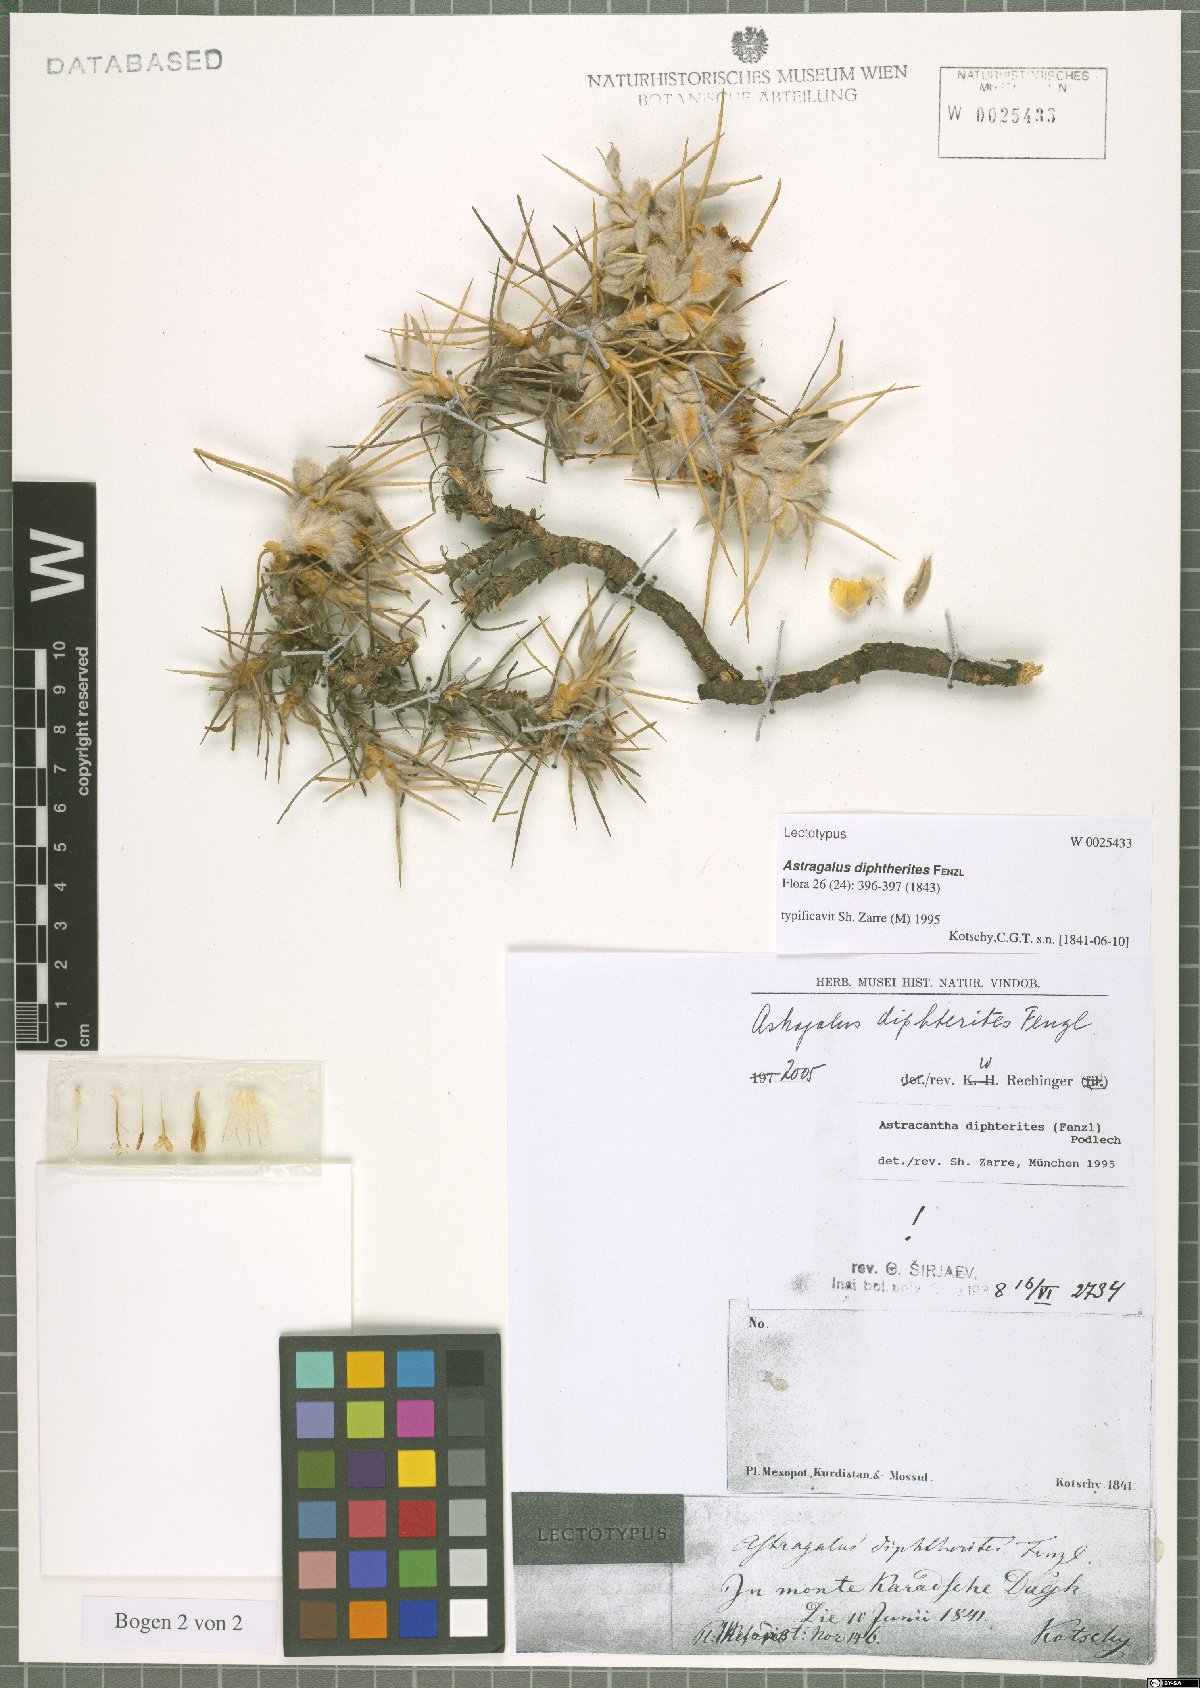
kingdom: Plantae
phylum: Tracheophyta
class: Magnoliopsida
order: Fabales
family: Fabaceae
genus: Astragalus
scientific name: Astragalus diphtherites
